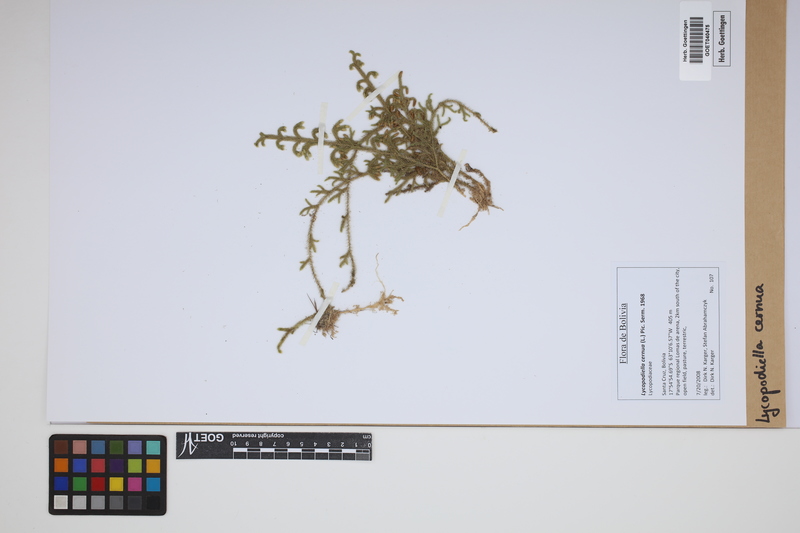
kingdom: Plantae
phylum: Tracheophyta
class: Lycopodiopsida
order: Lycopodiales
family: Lycopodiaceae
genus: Palhinhaea
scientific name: Palhinhaea cernua
